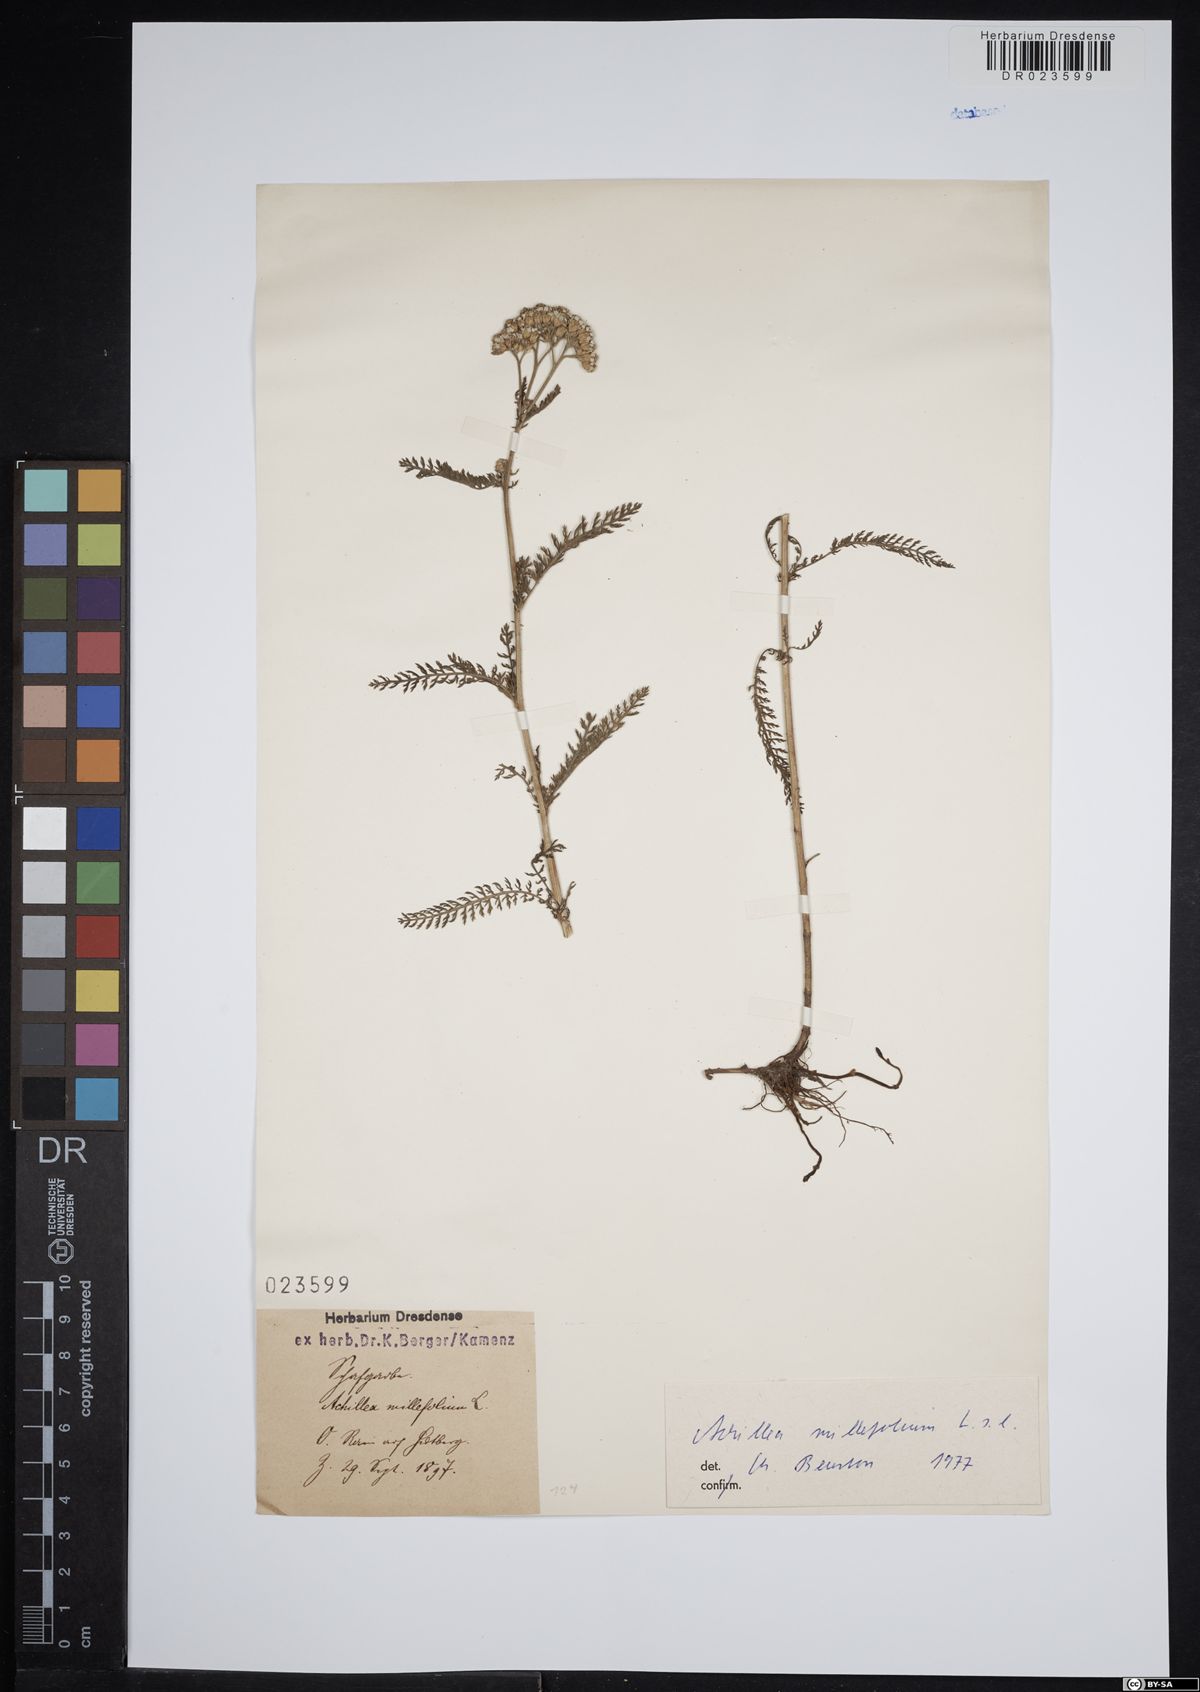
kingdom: Plantae
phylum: Tracheophyta
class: Magnoliopsida
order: Asterales
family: Asteraceae
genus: Achillea
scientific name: Achillea millefolium
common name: Yarrow
